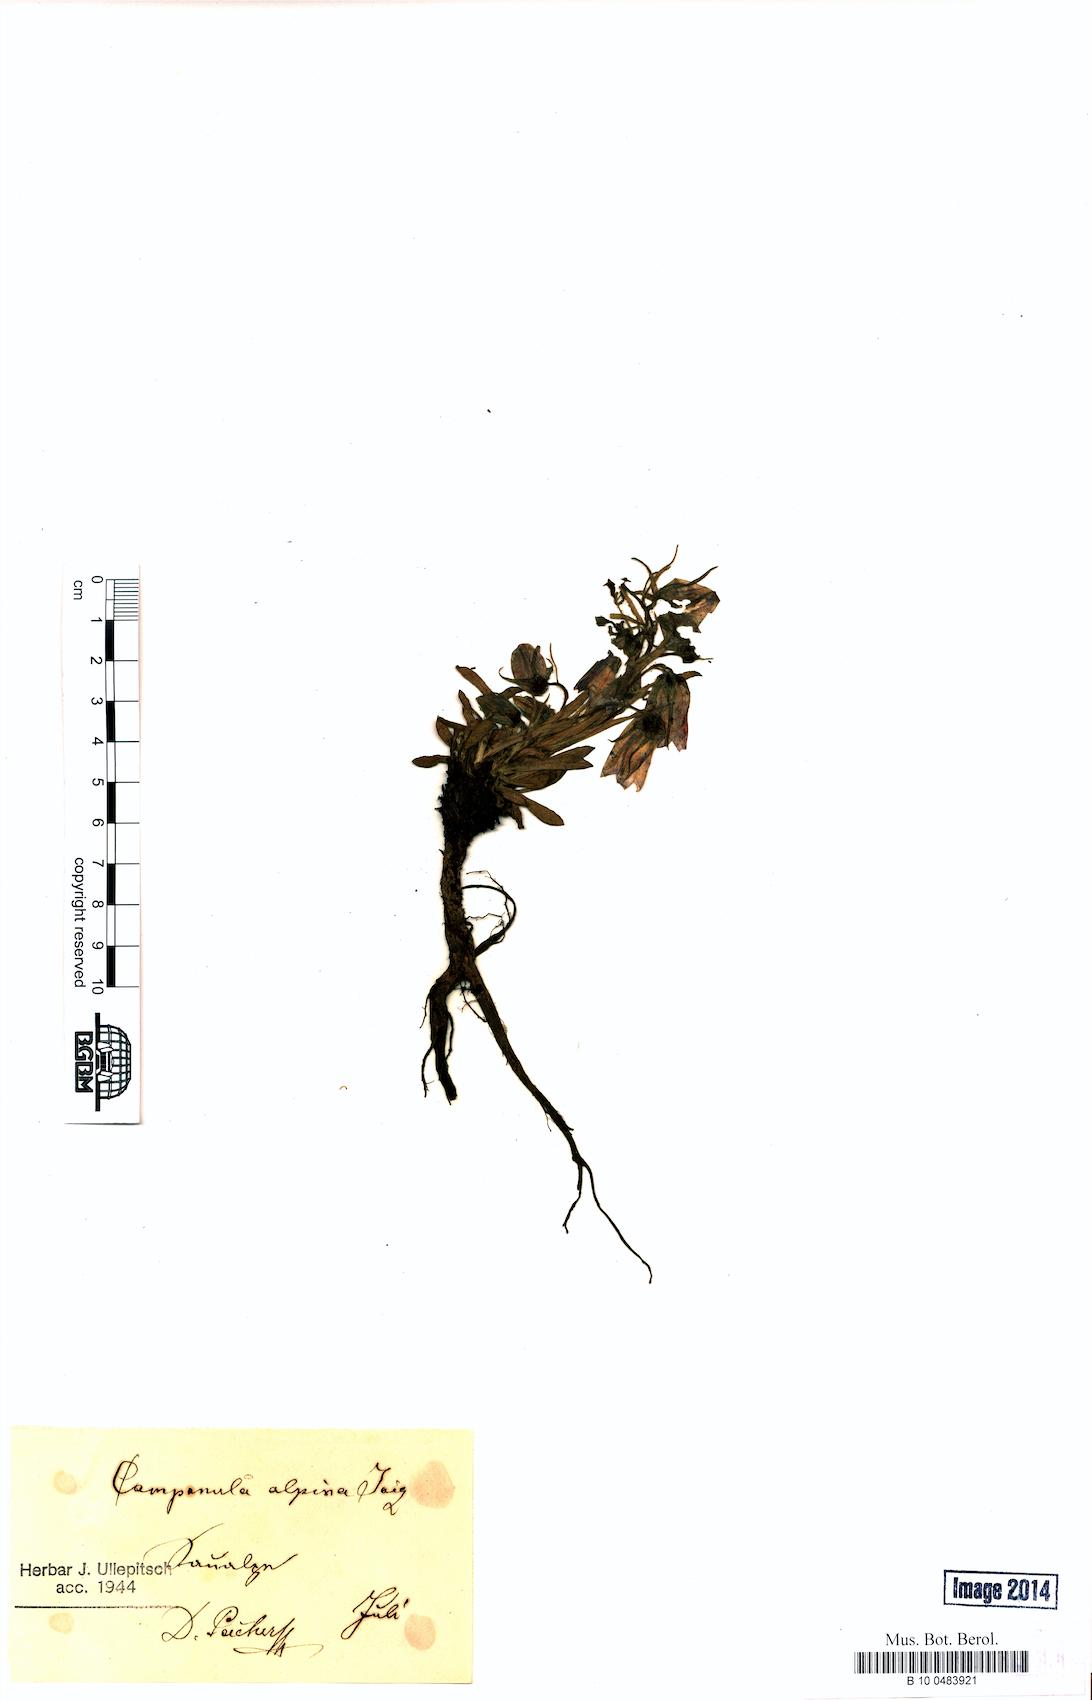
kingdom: Plantae
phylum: Tracheophyta
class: Magnoliopsida
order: Asterales
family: Campanulaceae
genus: Campanula
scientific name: Campanula alpina
